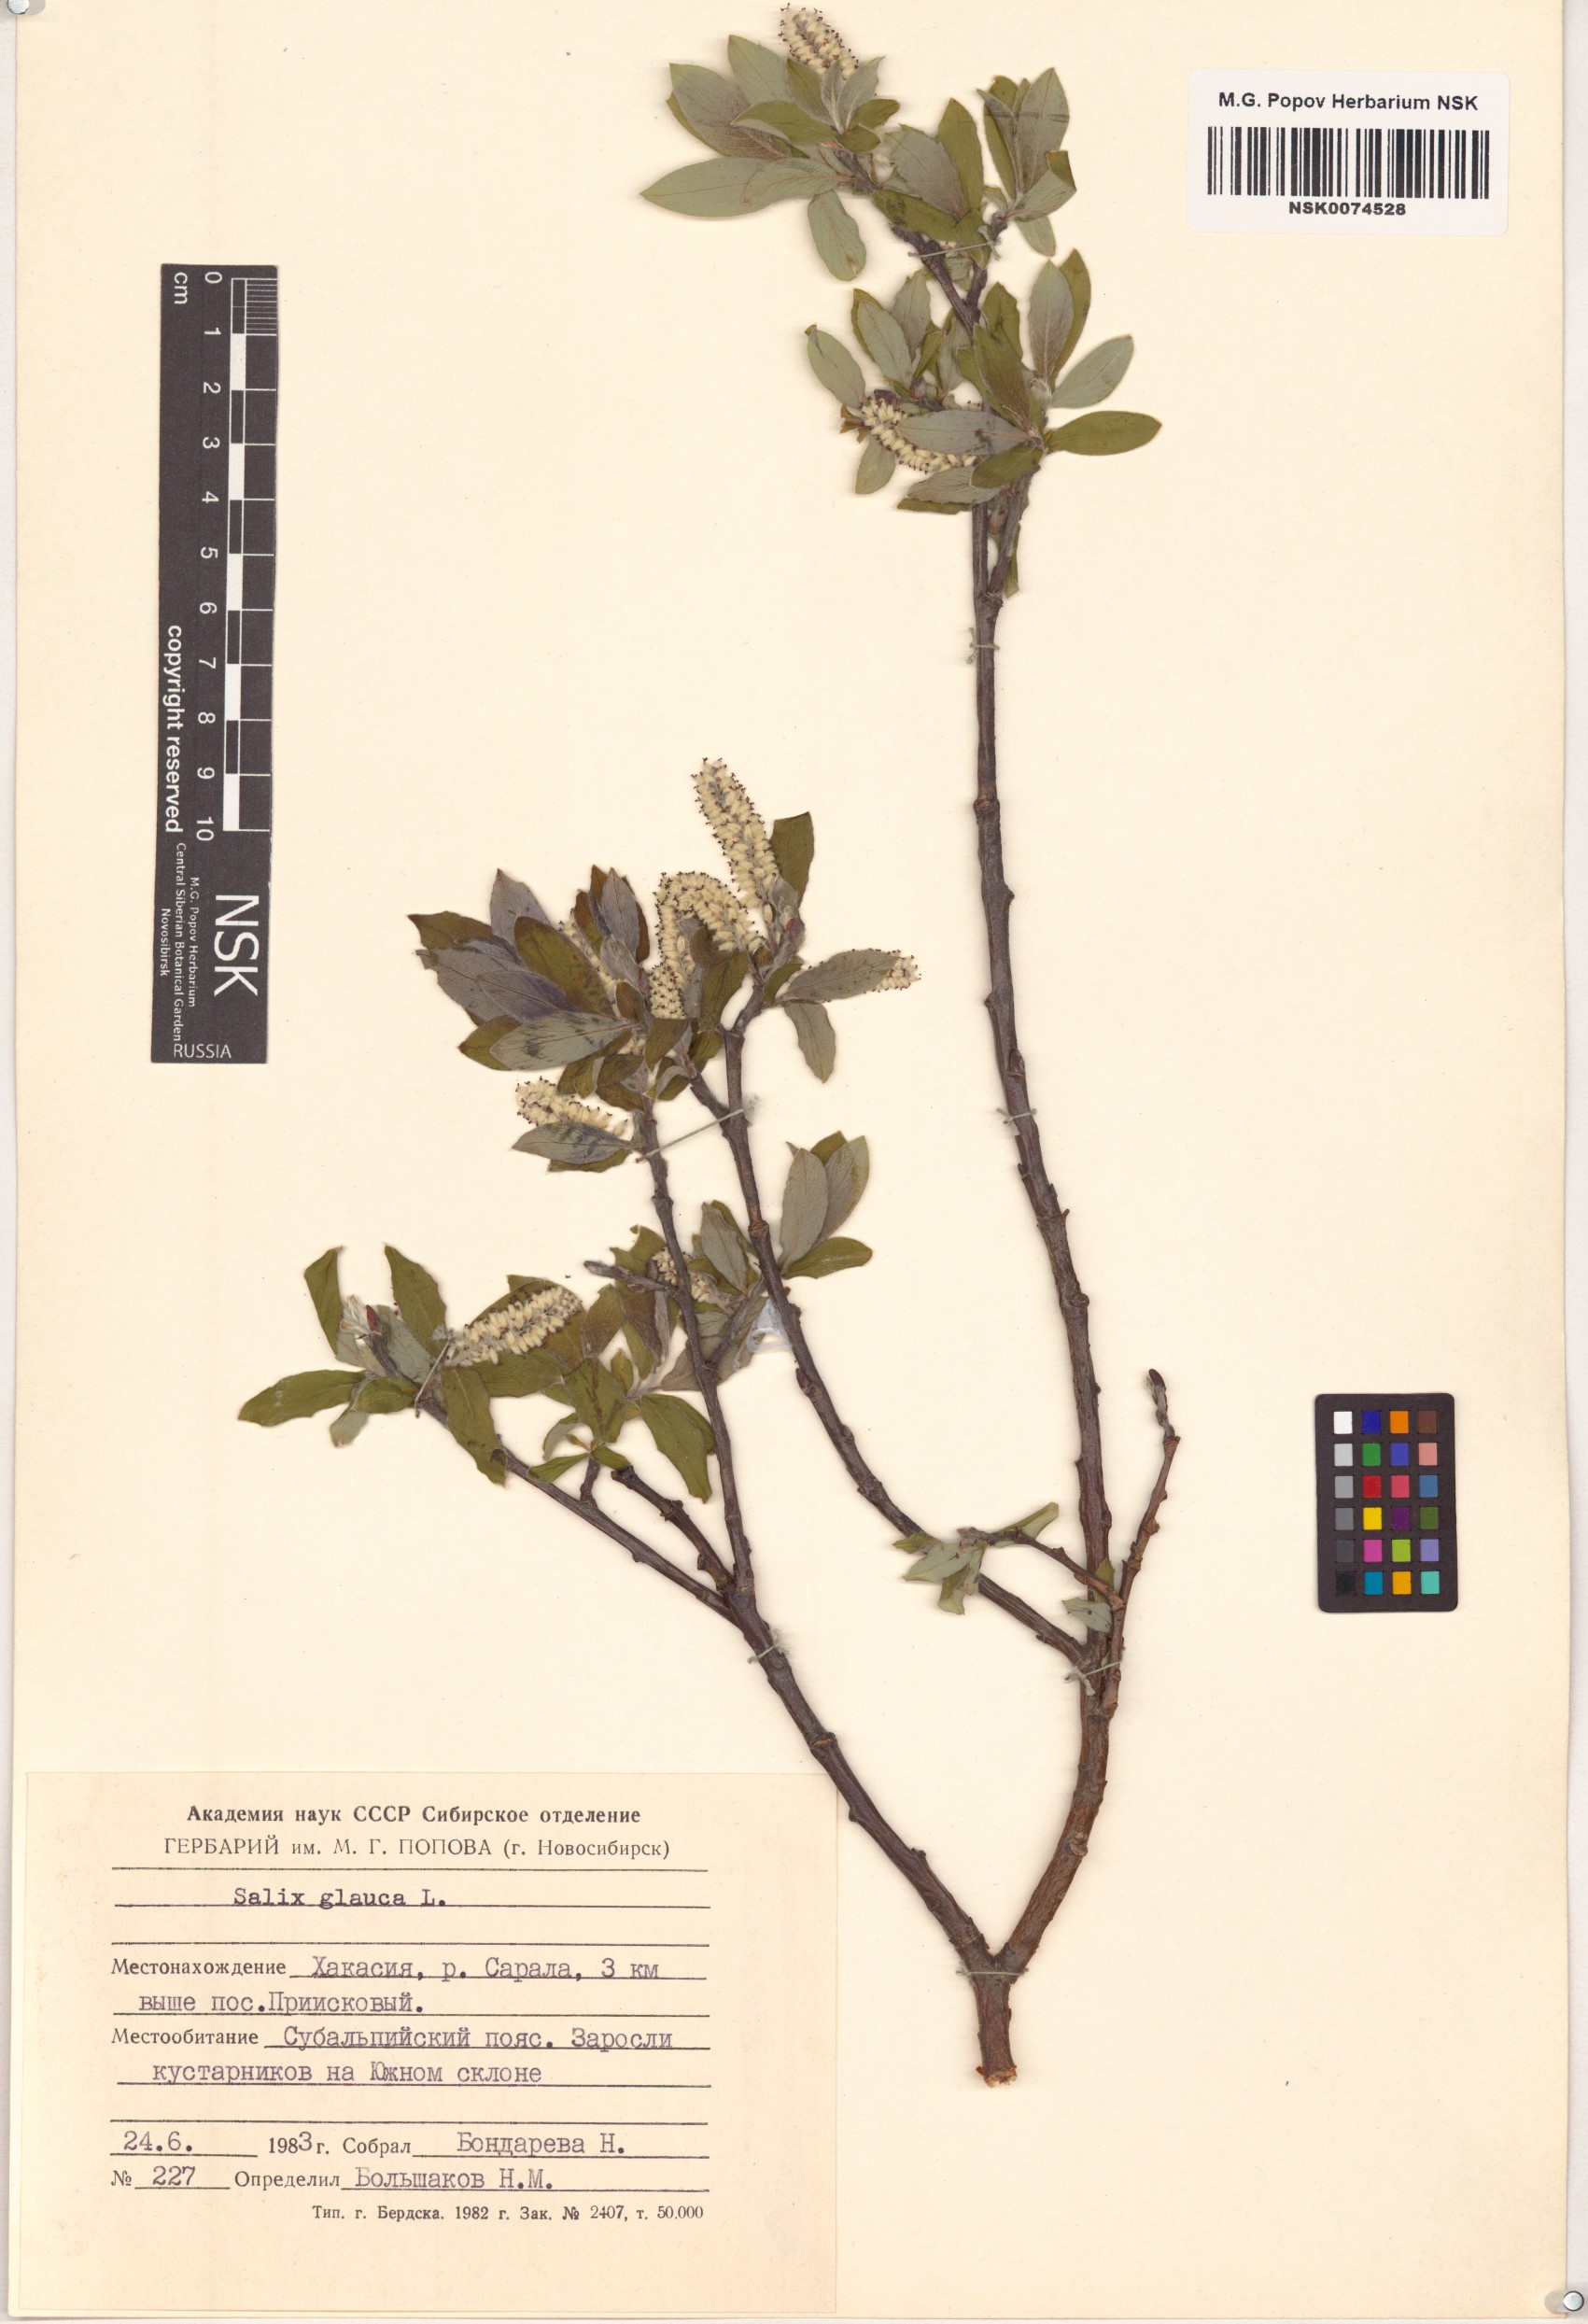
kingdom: Plantae
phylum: Tracheophyta
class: Magnoliopsida
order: Malpighiales
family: Salicaceae
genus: Salix
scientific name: Salix glauca
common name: Glaucous willow
